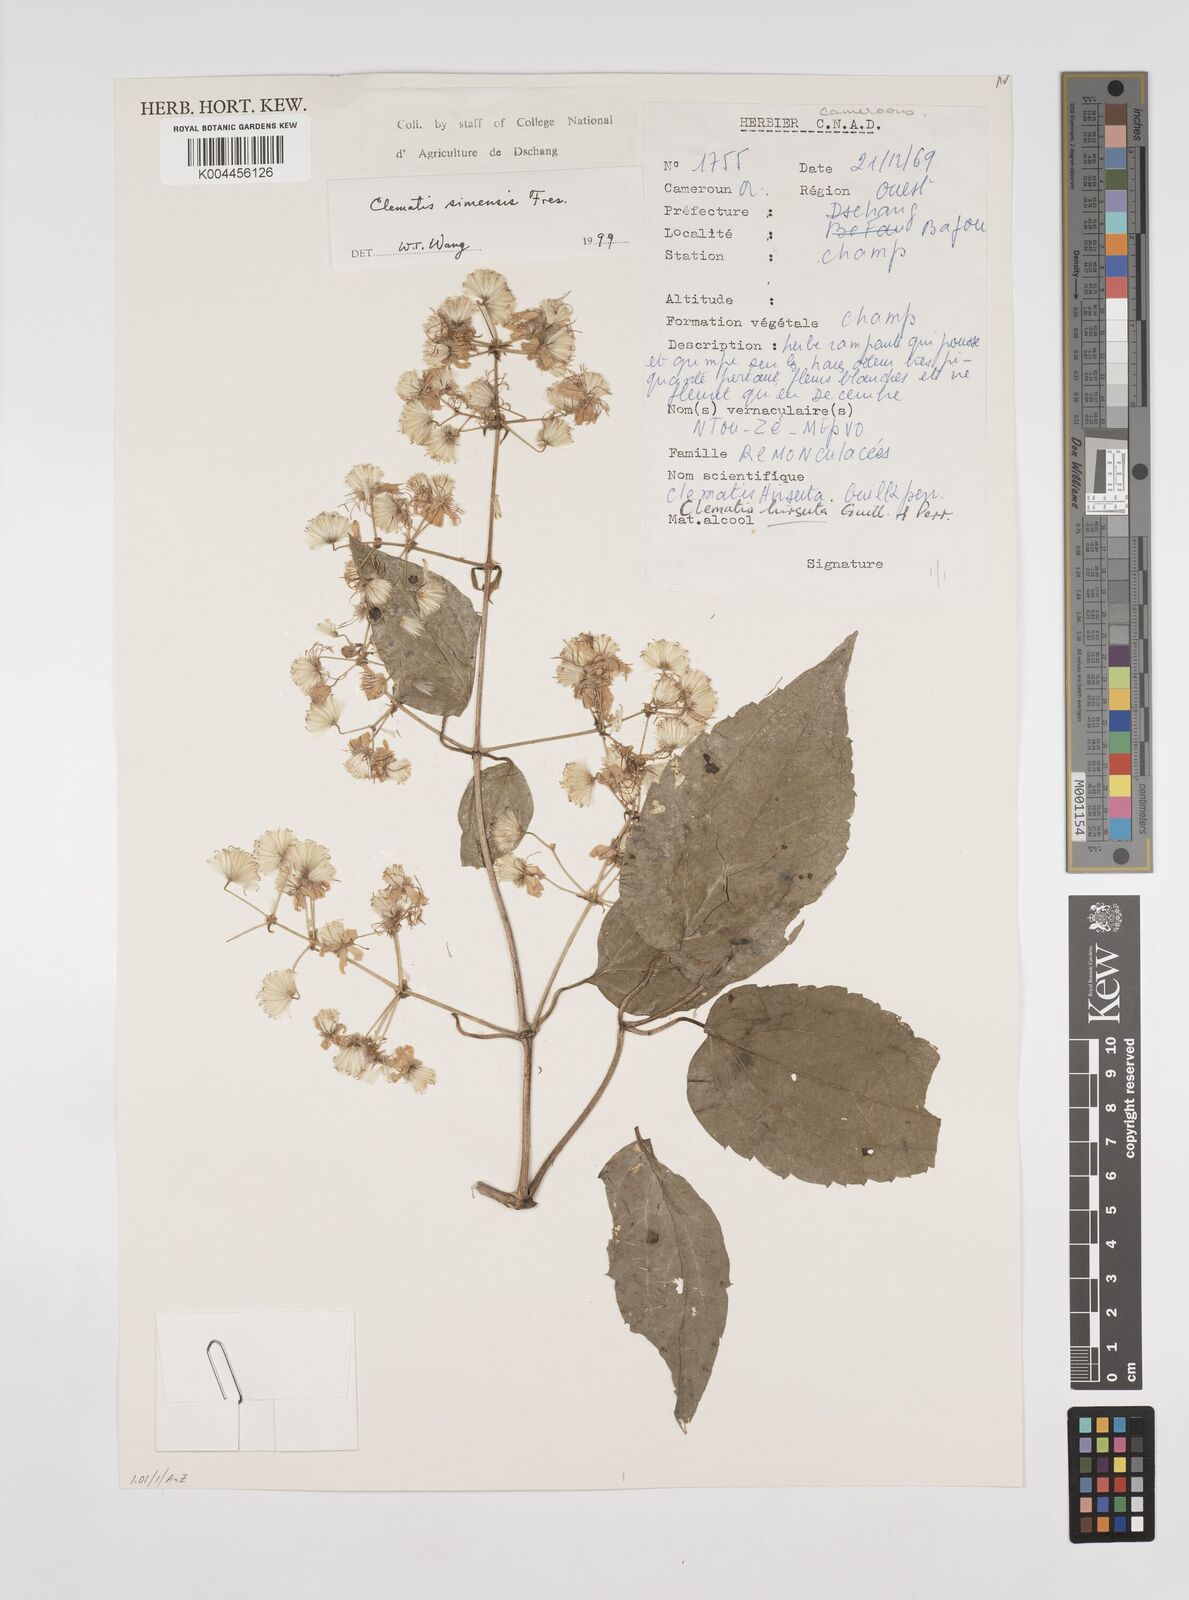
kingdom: Plantae
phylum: Tracheophyta
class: Magnoliopsida
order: Ranunculales
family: Ranunculaceae
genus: Clematis
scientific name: Clematis simensis
